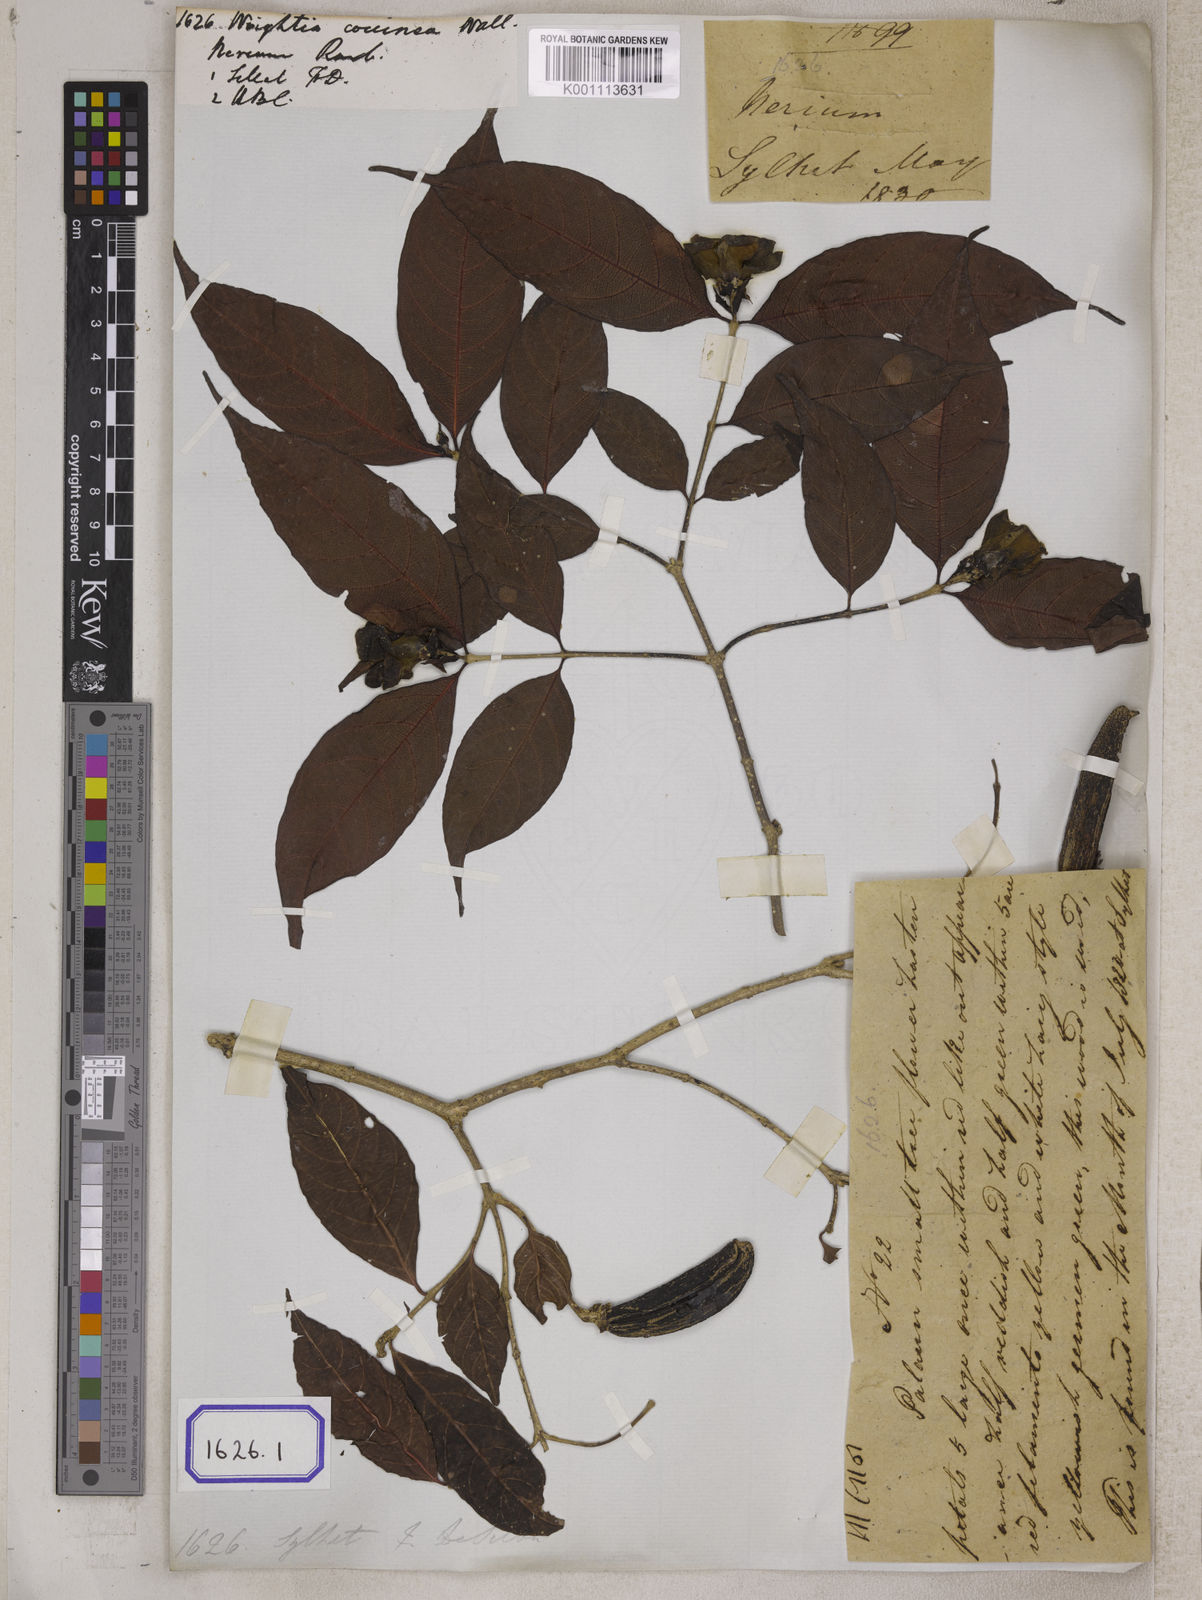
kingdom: Plantae
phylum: Tracheophyta
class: Magnoliopsida
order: Gentianales
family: Apocynaceae
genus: Wrightia
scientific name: Wrightia coccinea
